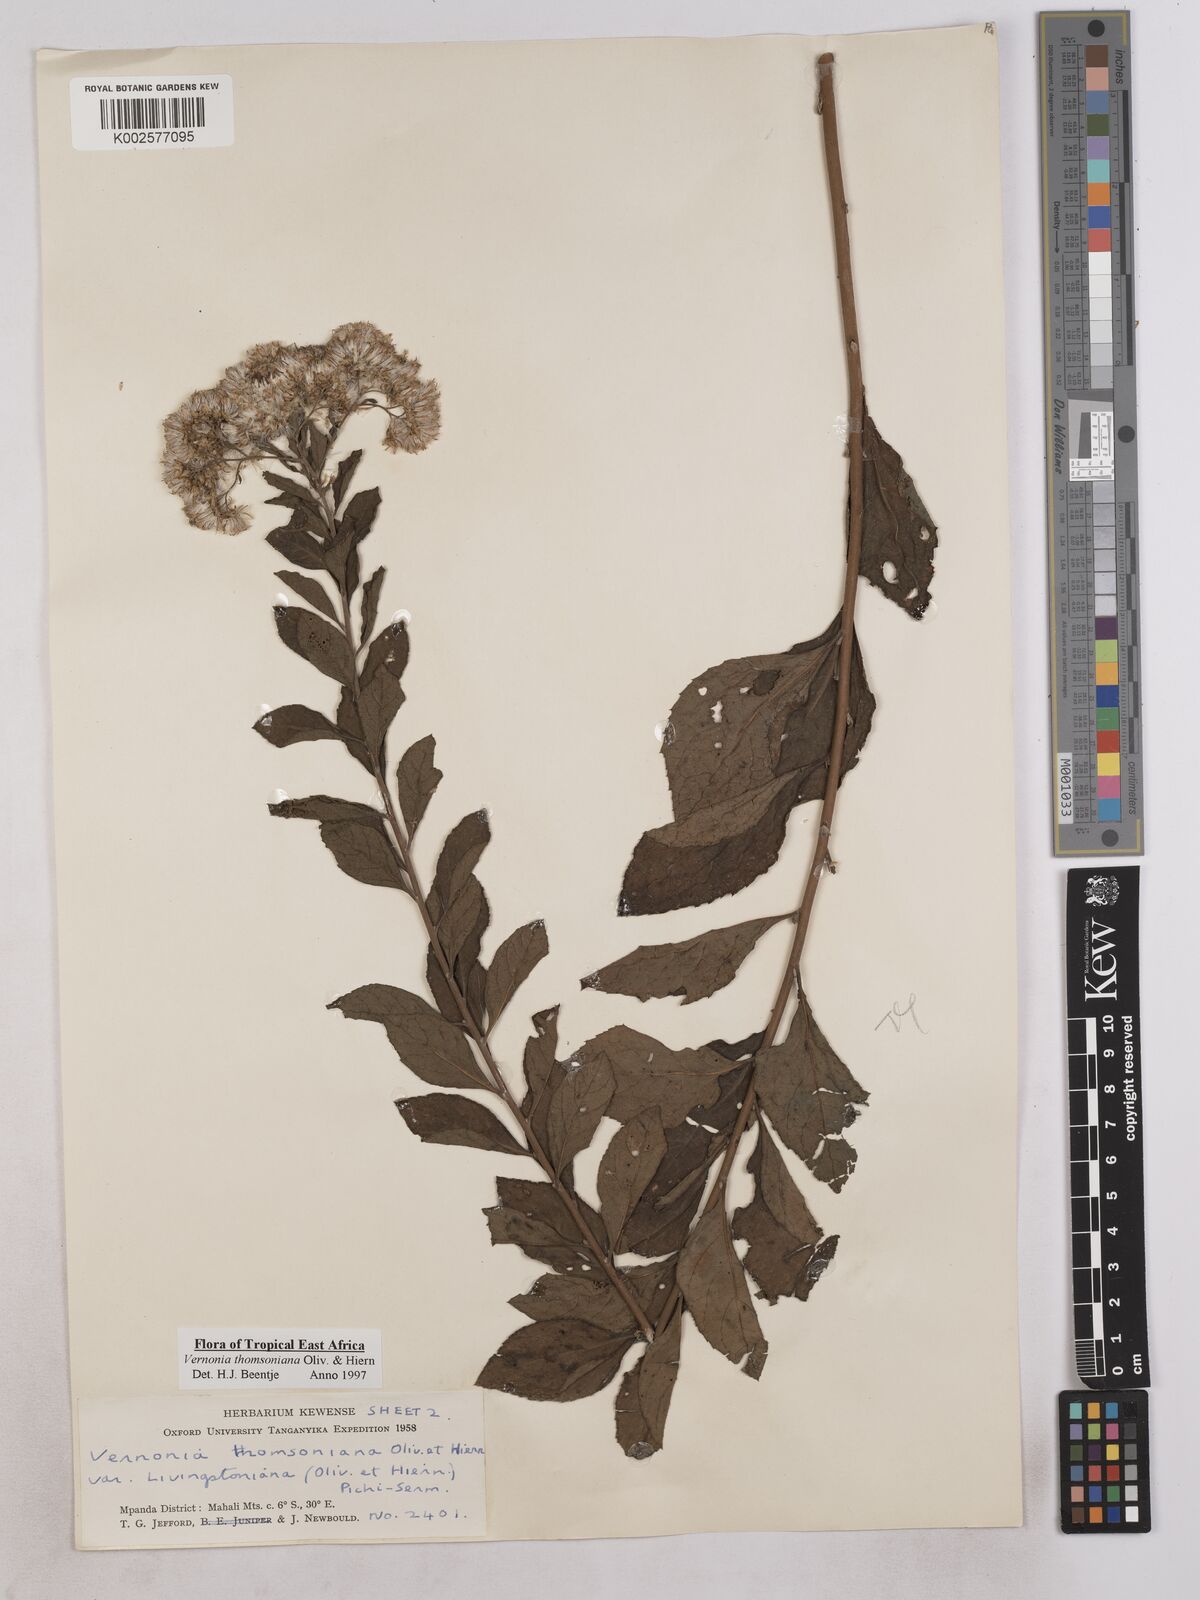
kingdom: Plantae
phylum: Tracheophyta
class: Magnoliopsida
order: Asterales
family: Asteraceae
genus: Gymnanthemum
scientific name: Gymnanthemum thomsonianum
